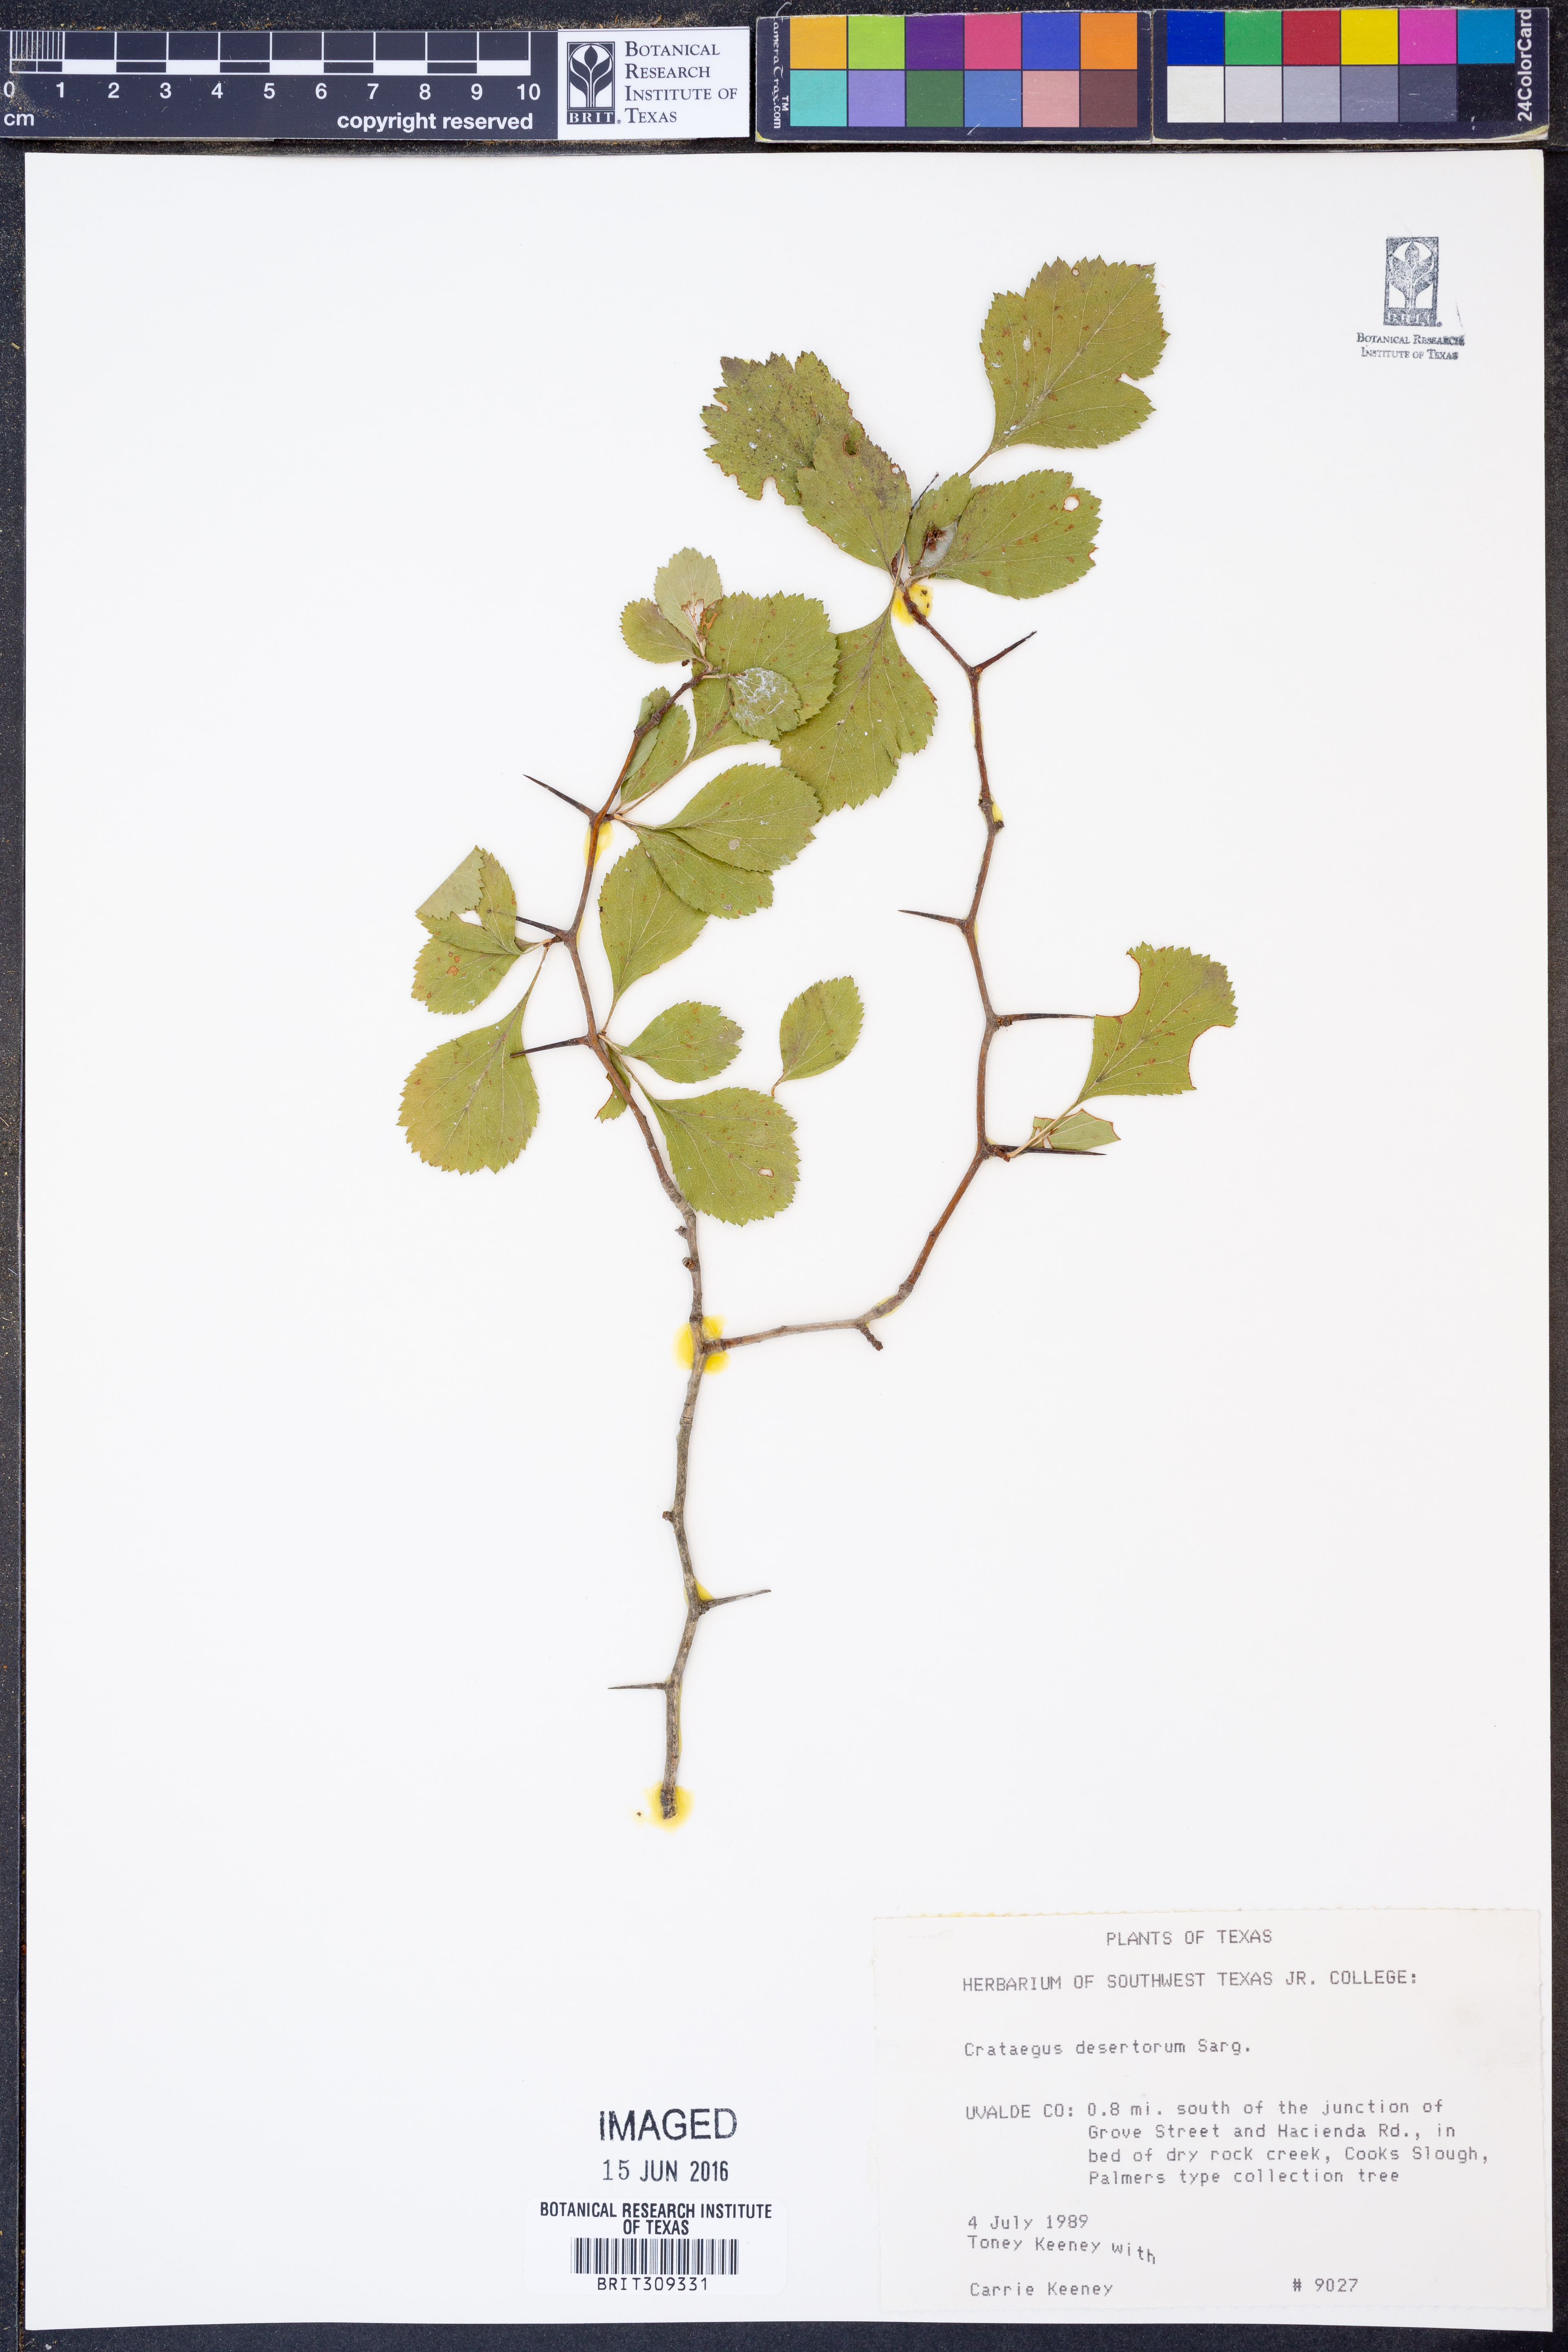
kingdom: Plantae
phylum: Tracheophyta
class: Magnoliopsida
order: Rosales
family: Rosaceae
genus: Crataegus
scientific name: Crataegus viridis
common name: Southernthorn
